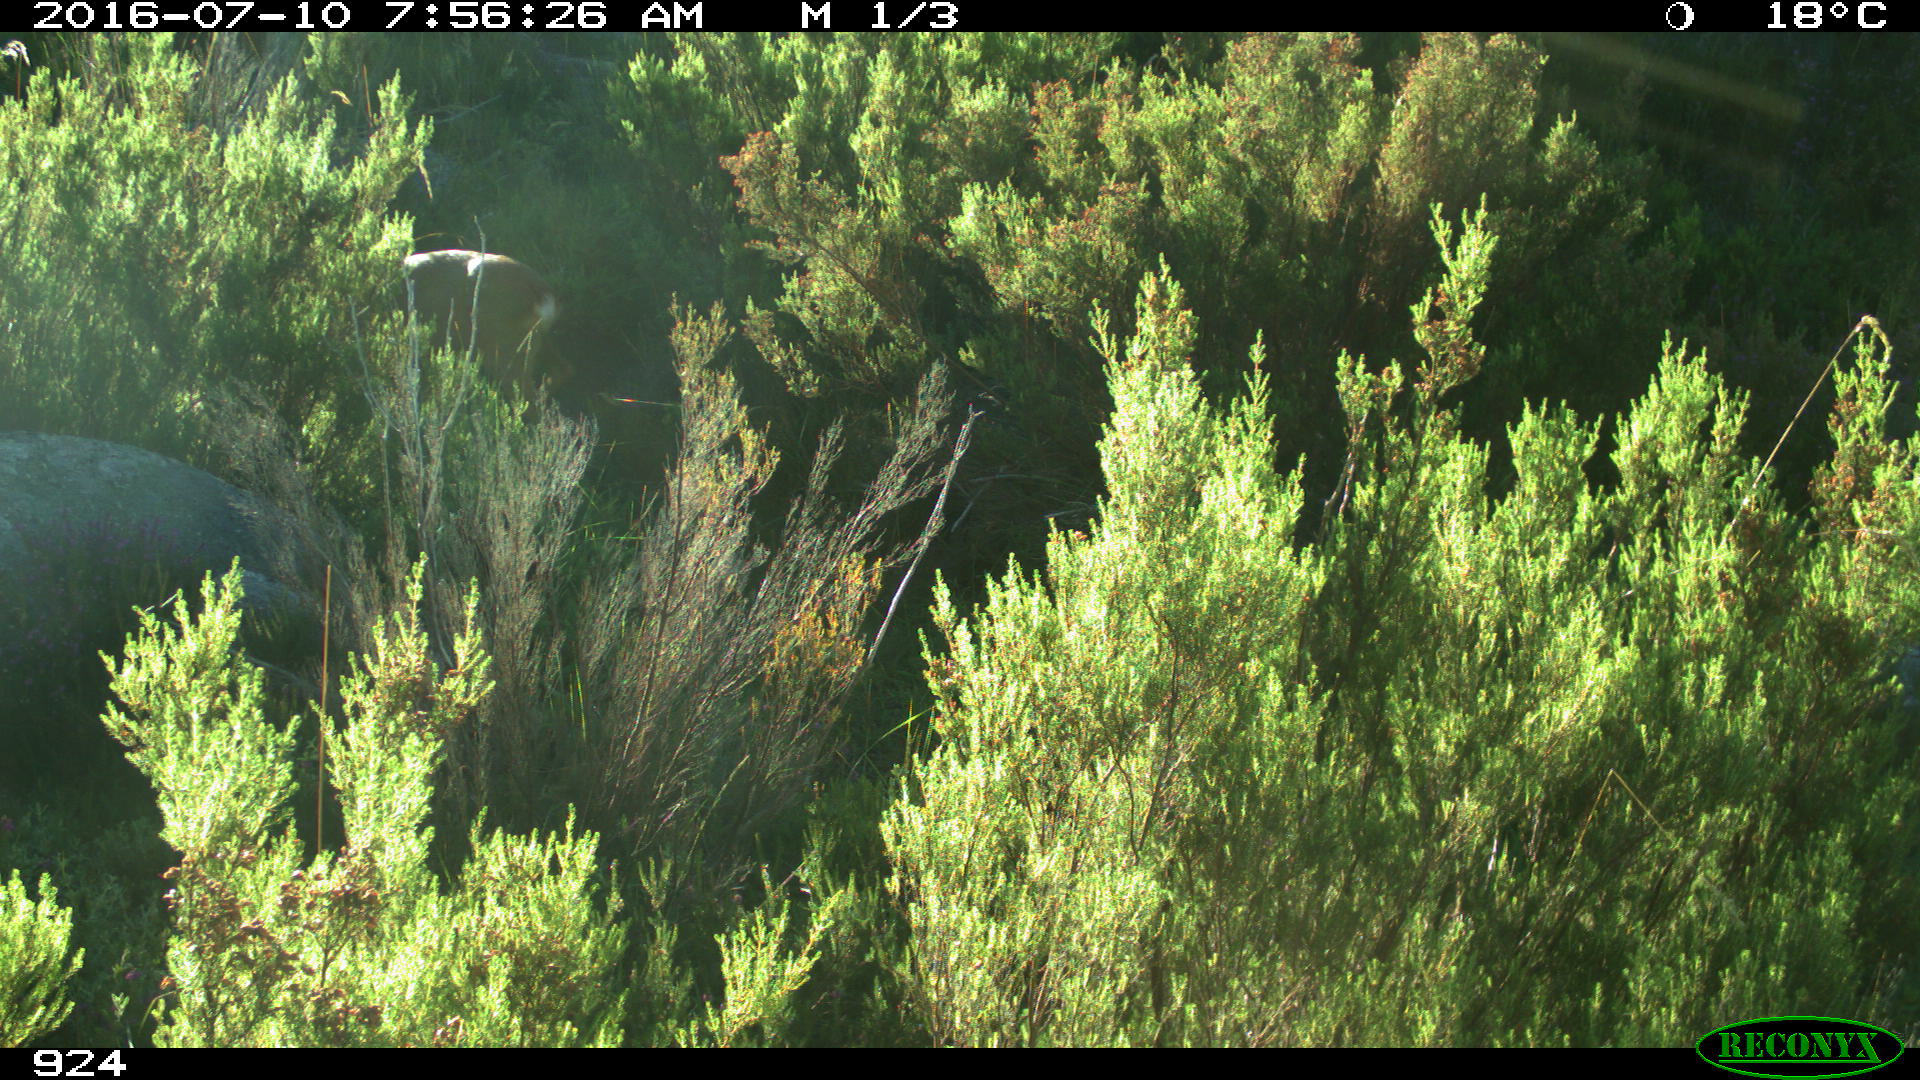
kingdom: Animalia
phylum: Chordata
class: Mammalia
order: Artiodactyla
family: Cervidae
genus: Capreolus
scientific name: Capreolus capreolus
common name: Western roe deer
